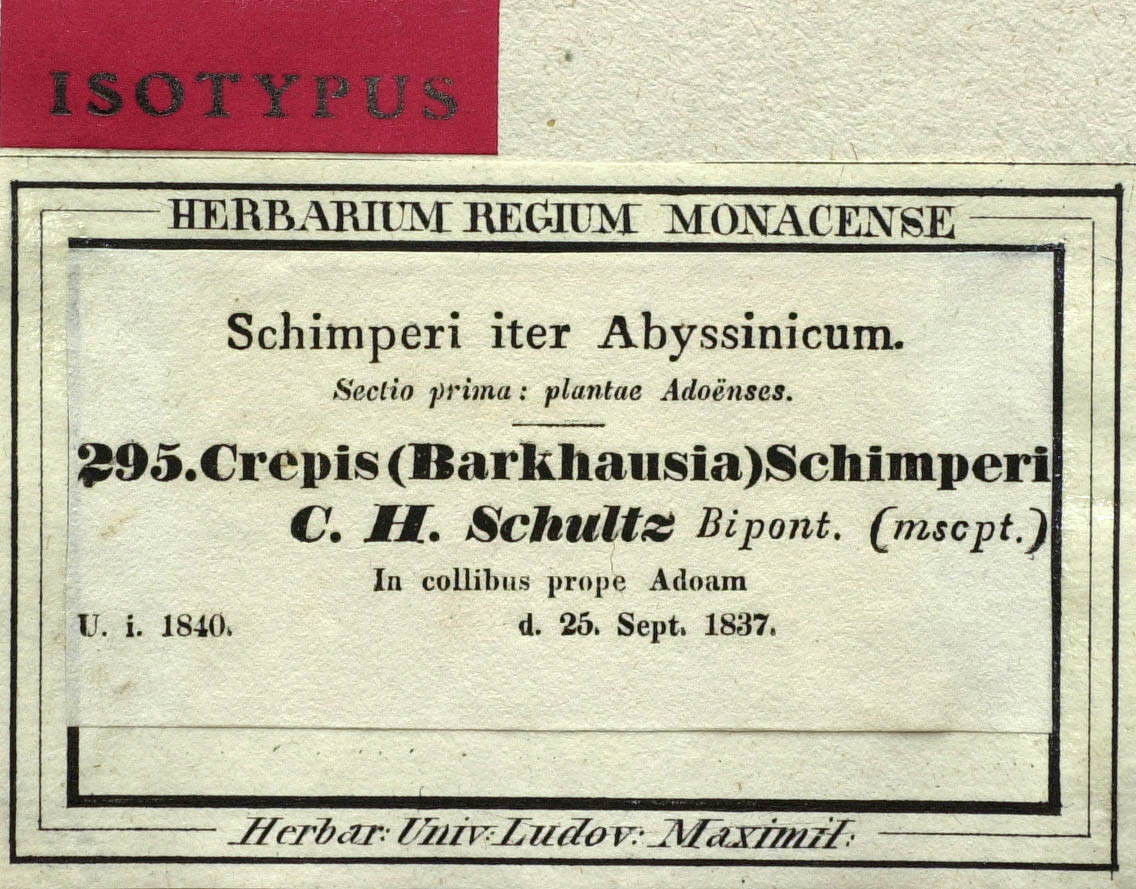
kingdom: Plantae
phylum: Tracheophyta
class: Magnoliopsida
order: Asterales
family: Asteraceae
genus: Crepis
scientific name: Crepis foetida
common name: Stinking hawk's-beard
